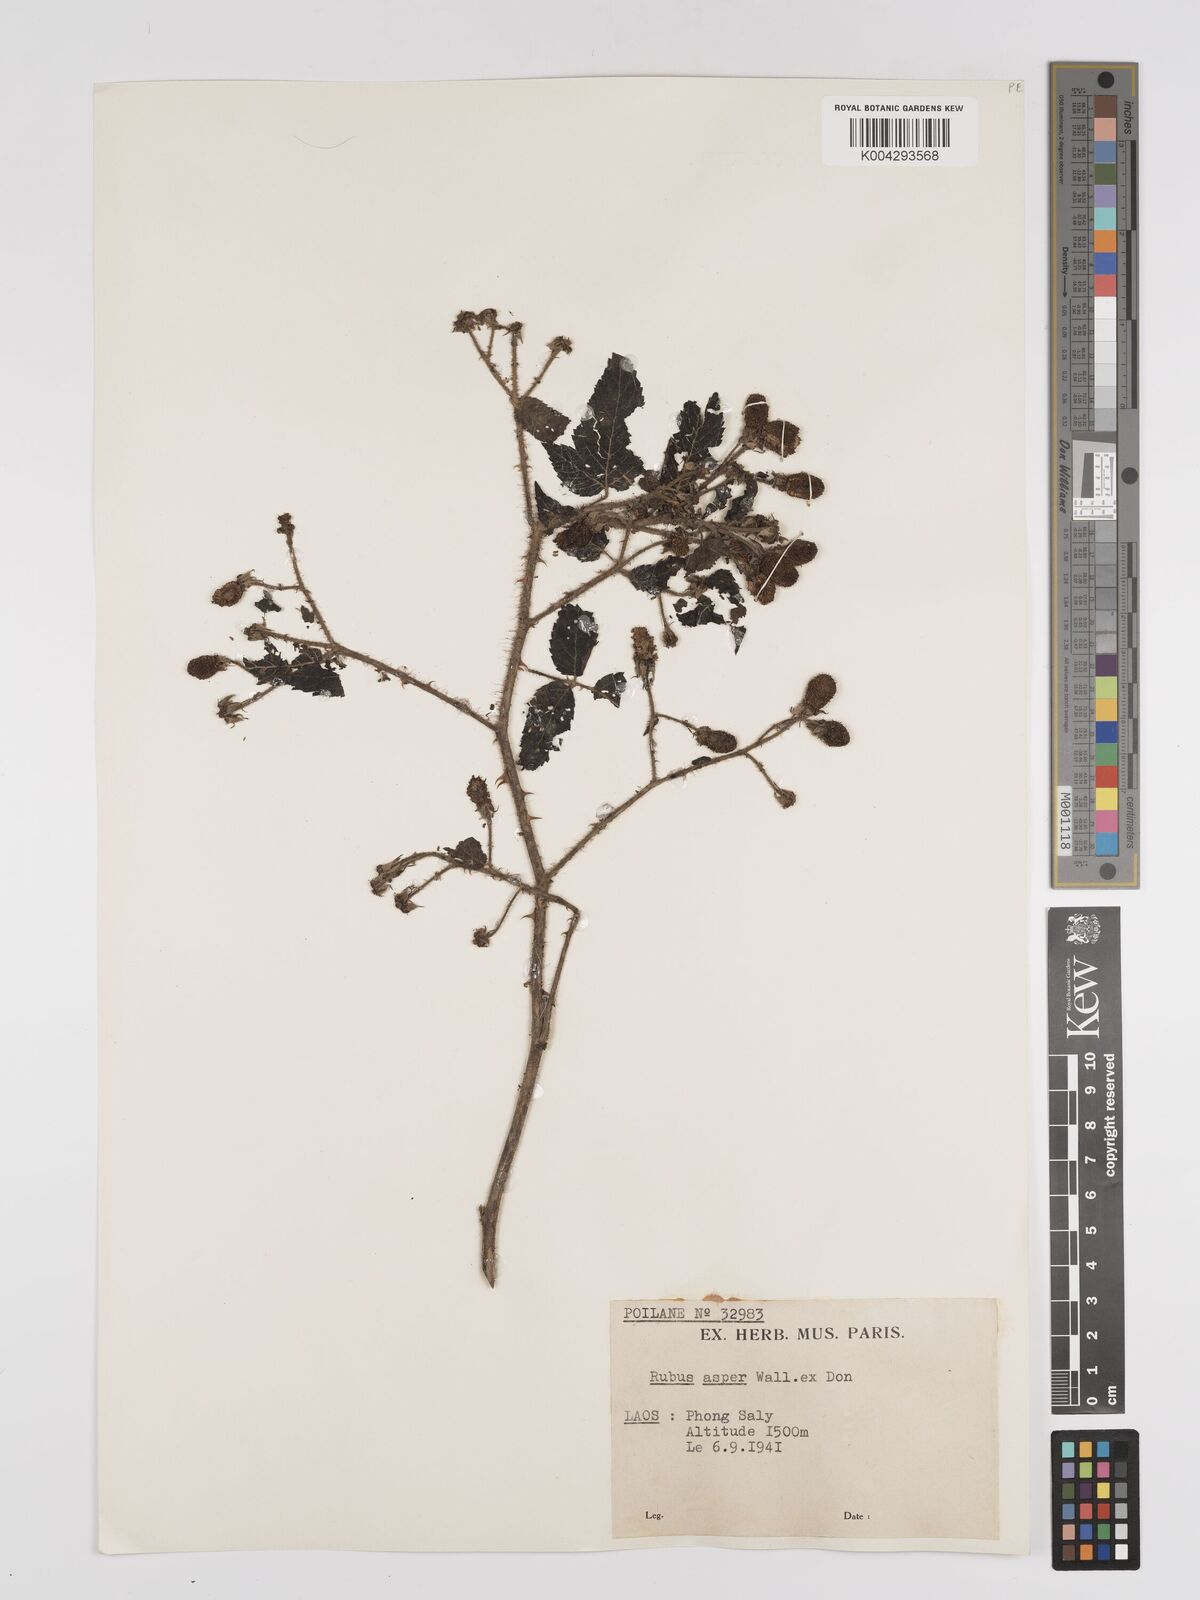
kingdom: Plantae
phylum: Tracheophyta
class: Magnoliopsida
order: Rosales
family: Rosaceae
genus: Rubus
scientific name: Rubus sumatranus
